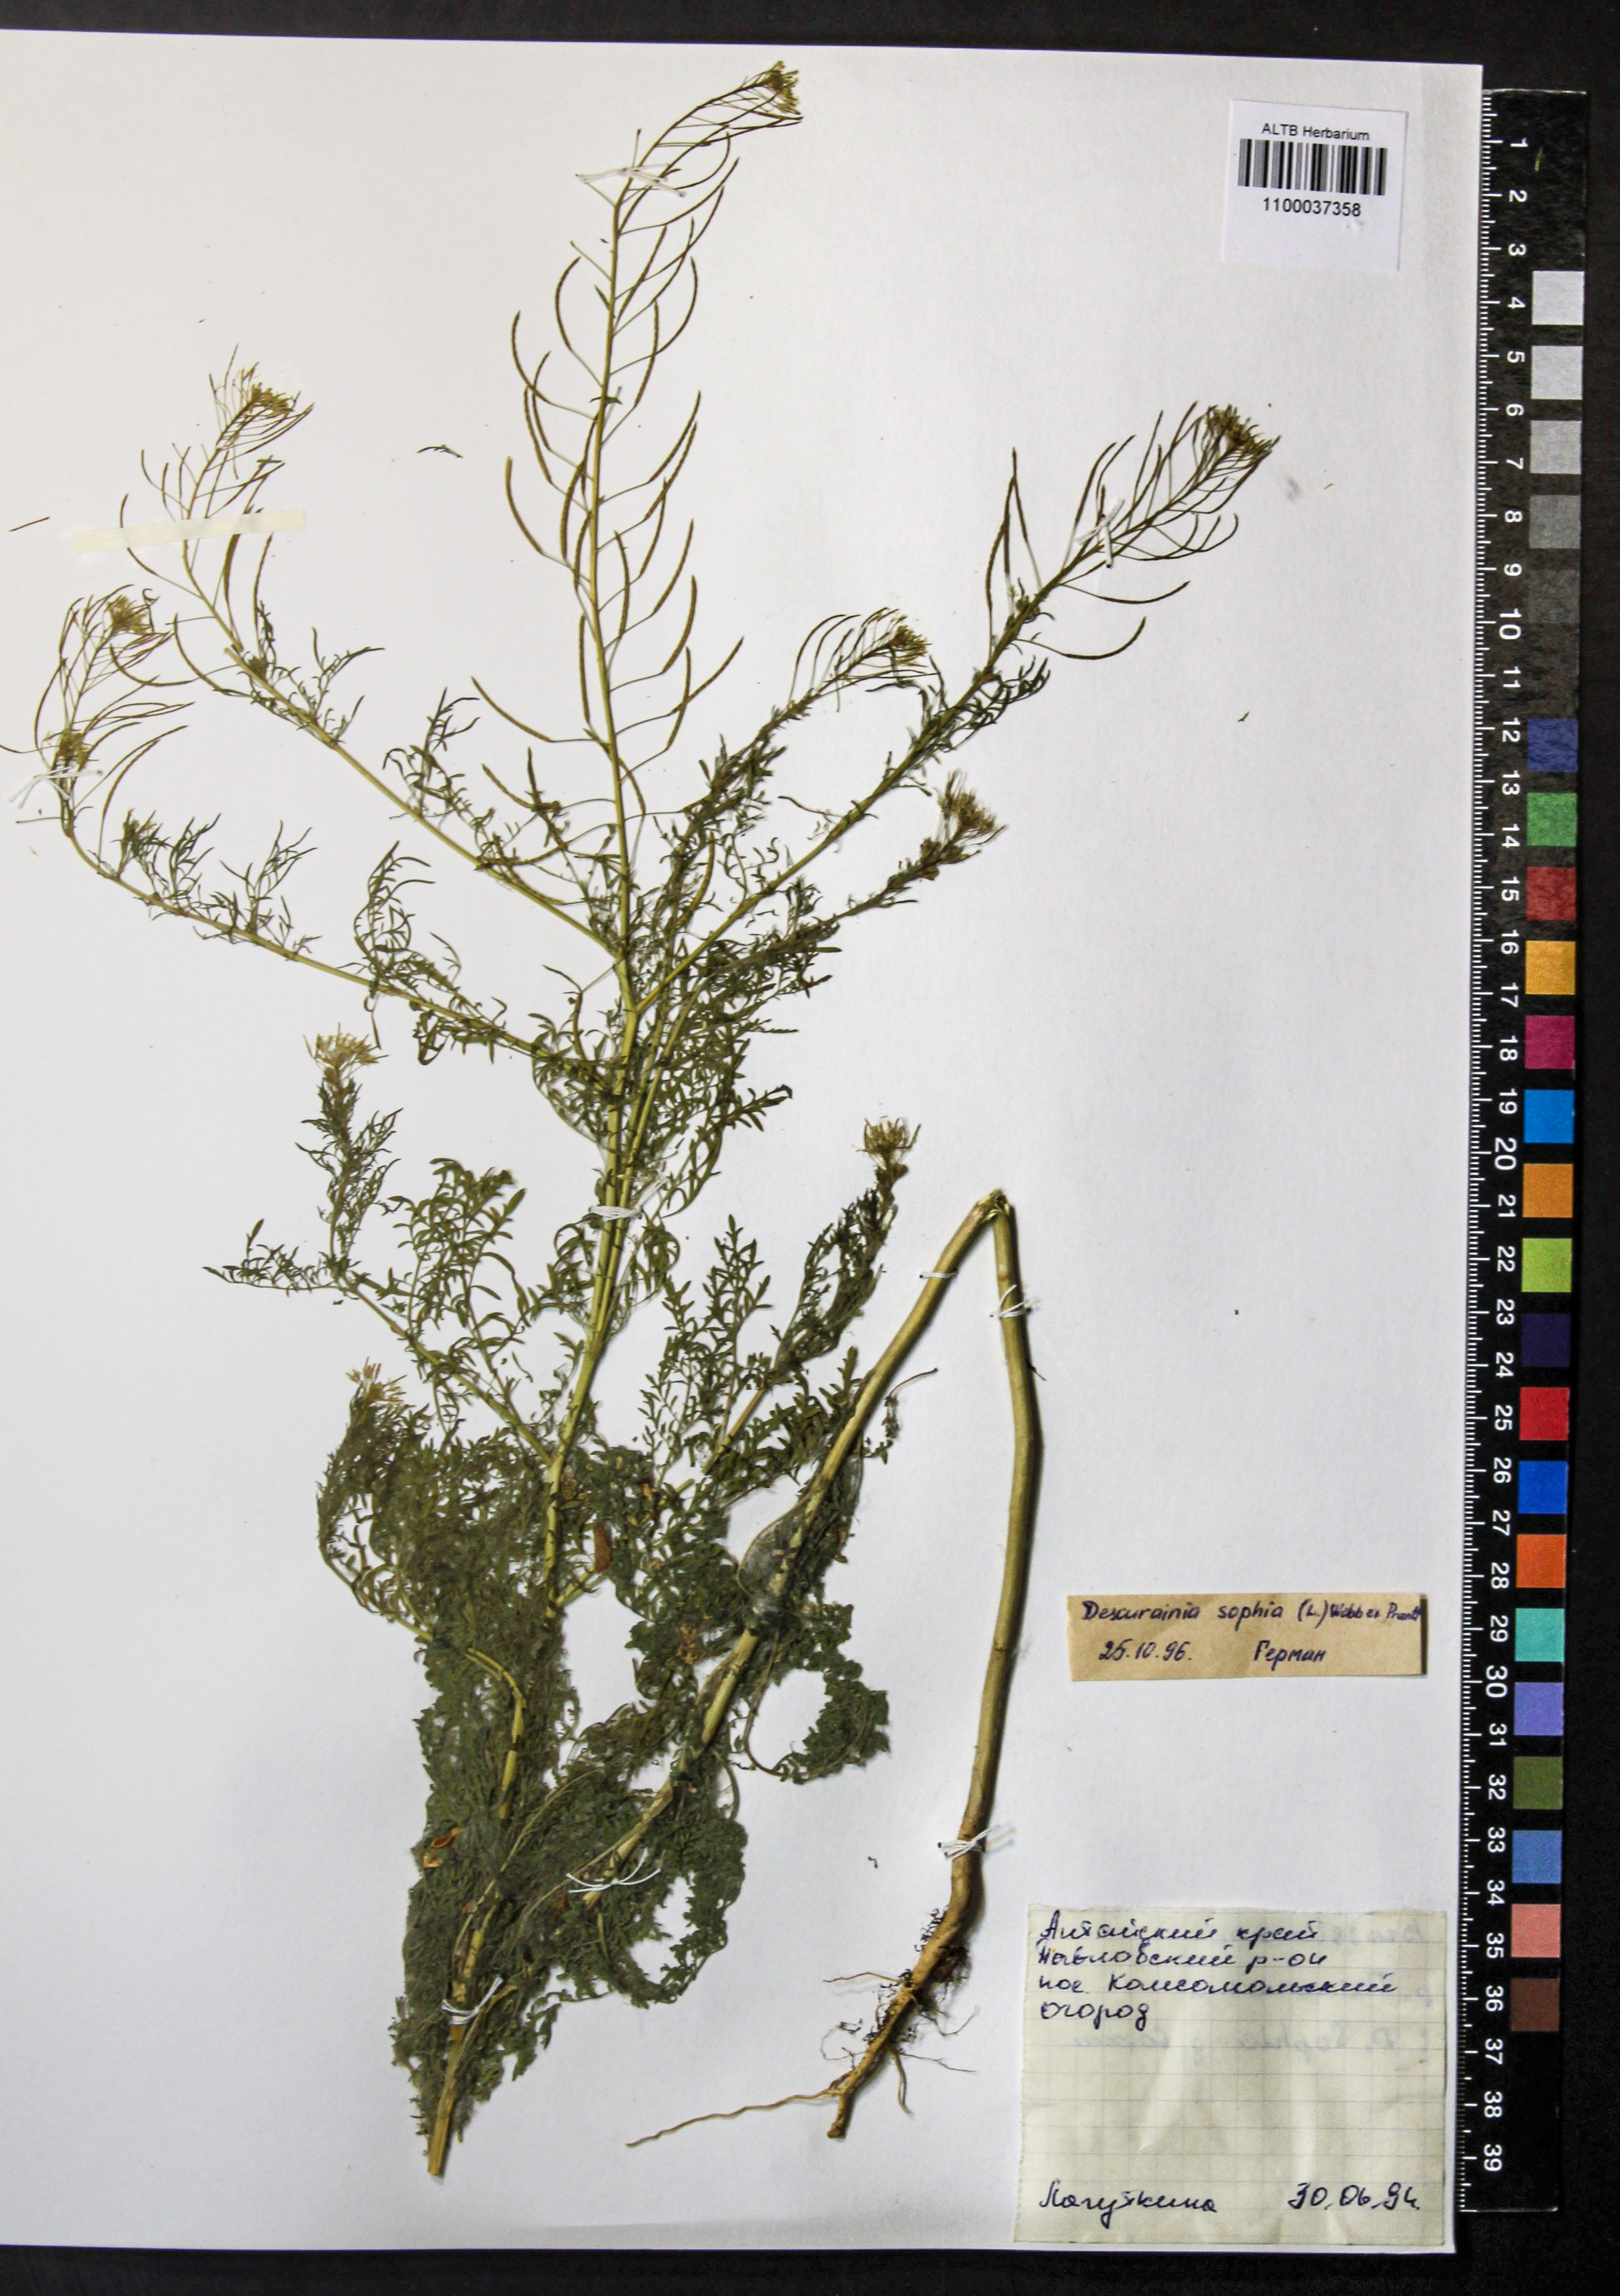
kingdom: Plantae
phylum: Tracheophyta
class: Magnoliopsida
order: Brassicales
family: Brassicaceae
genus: Descurainia
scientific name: Descurainia sophia
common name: Flixweed
